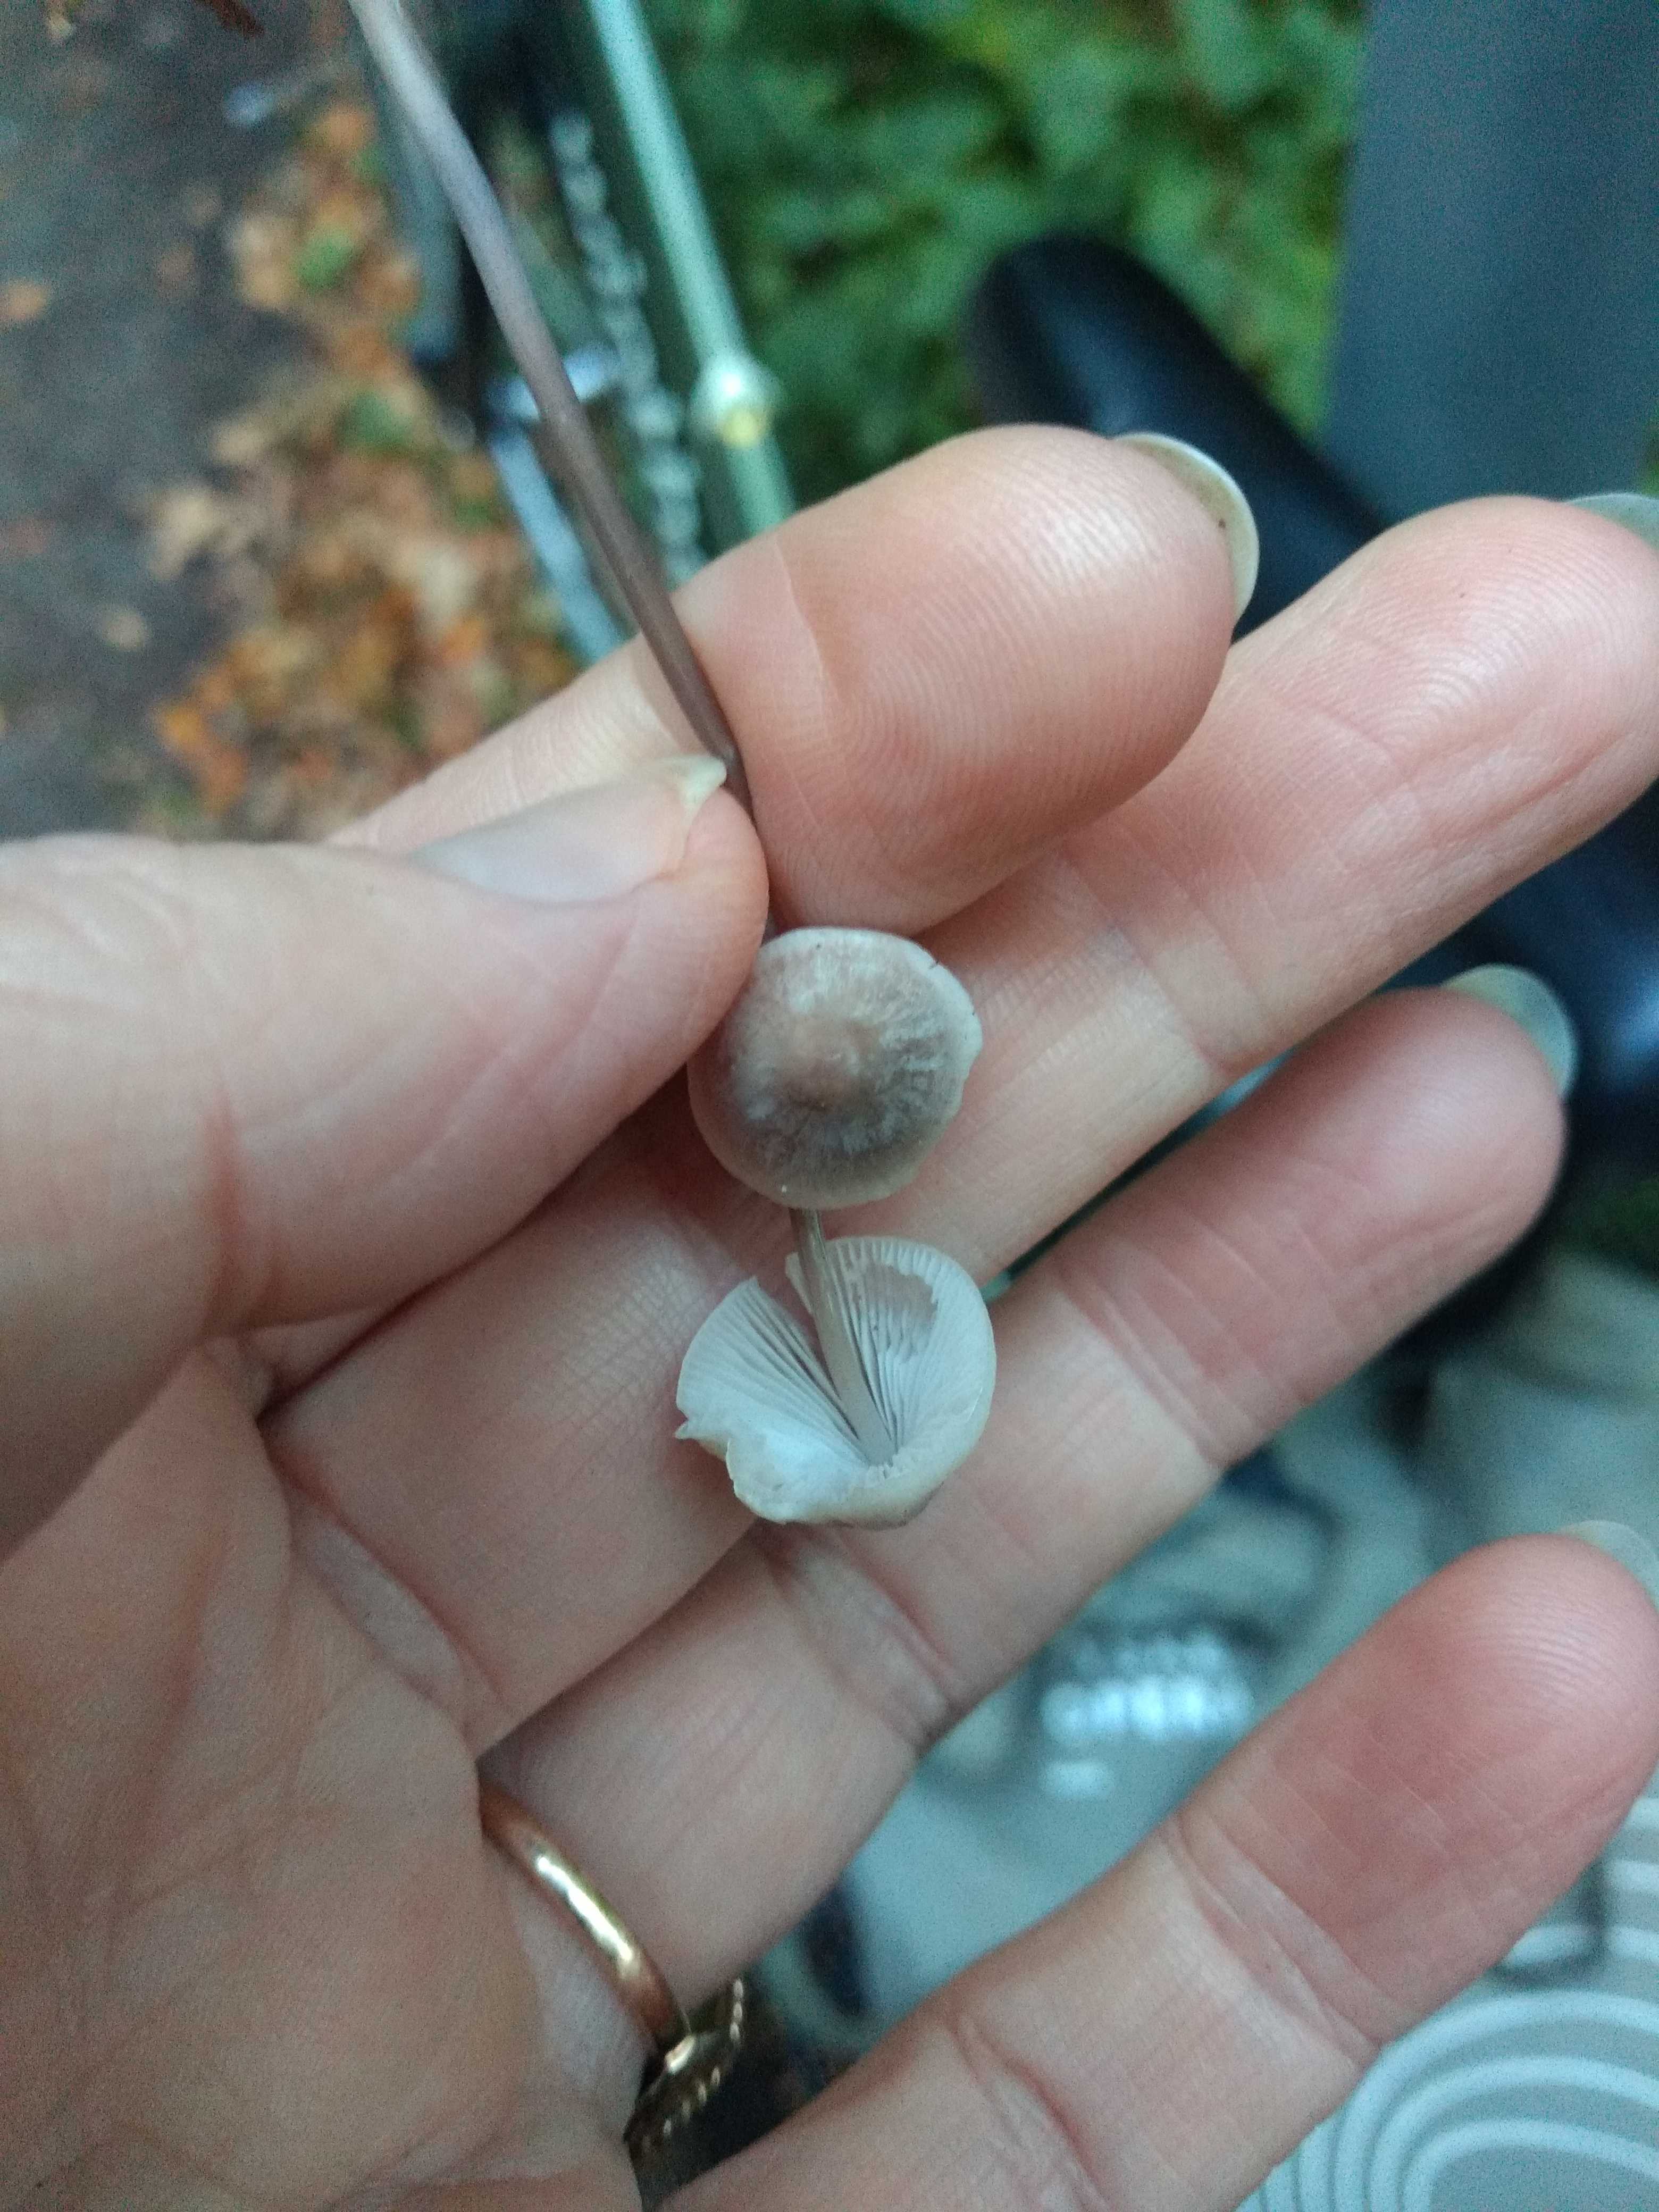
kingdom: Fungi
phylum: Basidiomycota
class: Agaricomycetes
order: Agaricales
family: Mycenaceae
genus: Mycena
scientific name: Mycena filopes
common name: jod-huesvamp
